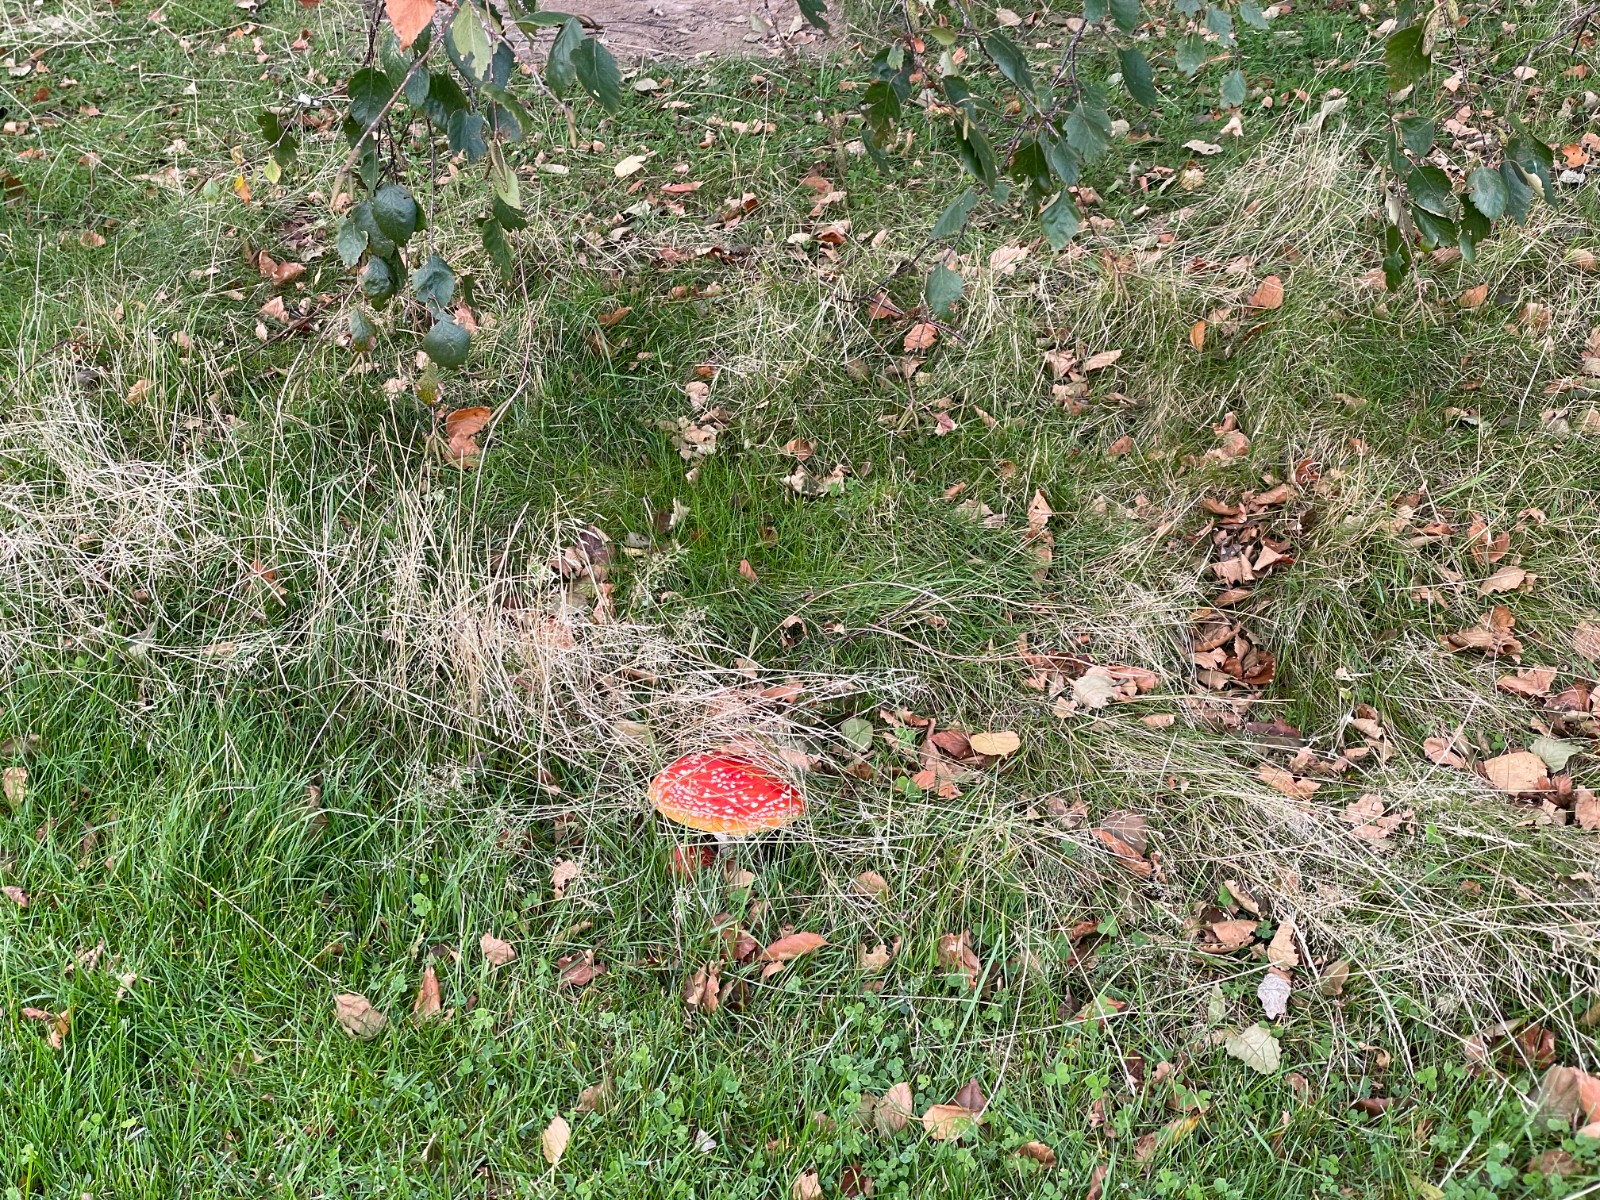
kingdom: Fungi
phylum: Basidiomycota
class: Agaricomycetes
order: Agaricales
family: Amanitaceae
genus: Amanita
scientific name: Amanita muscaria
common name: rød fluesvamp
